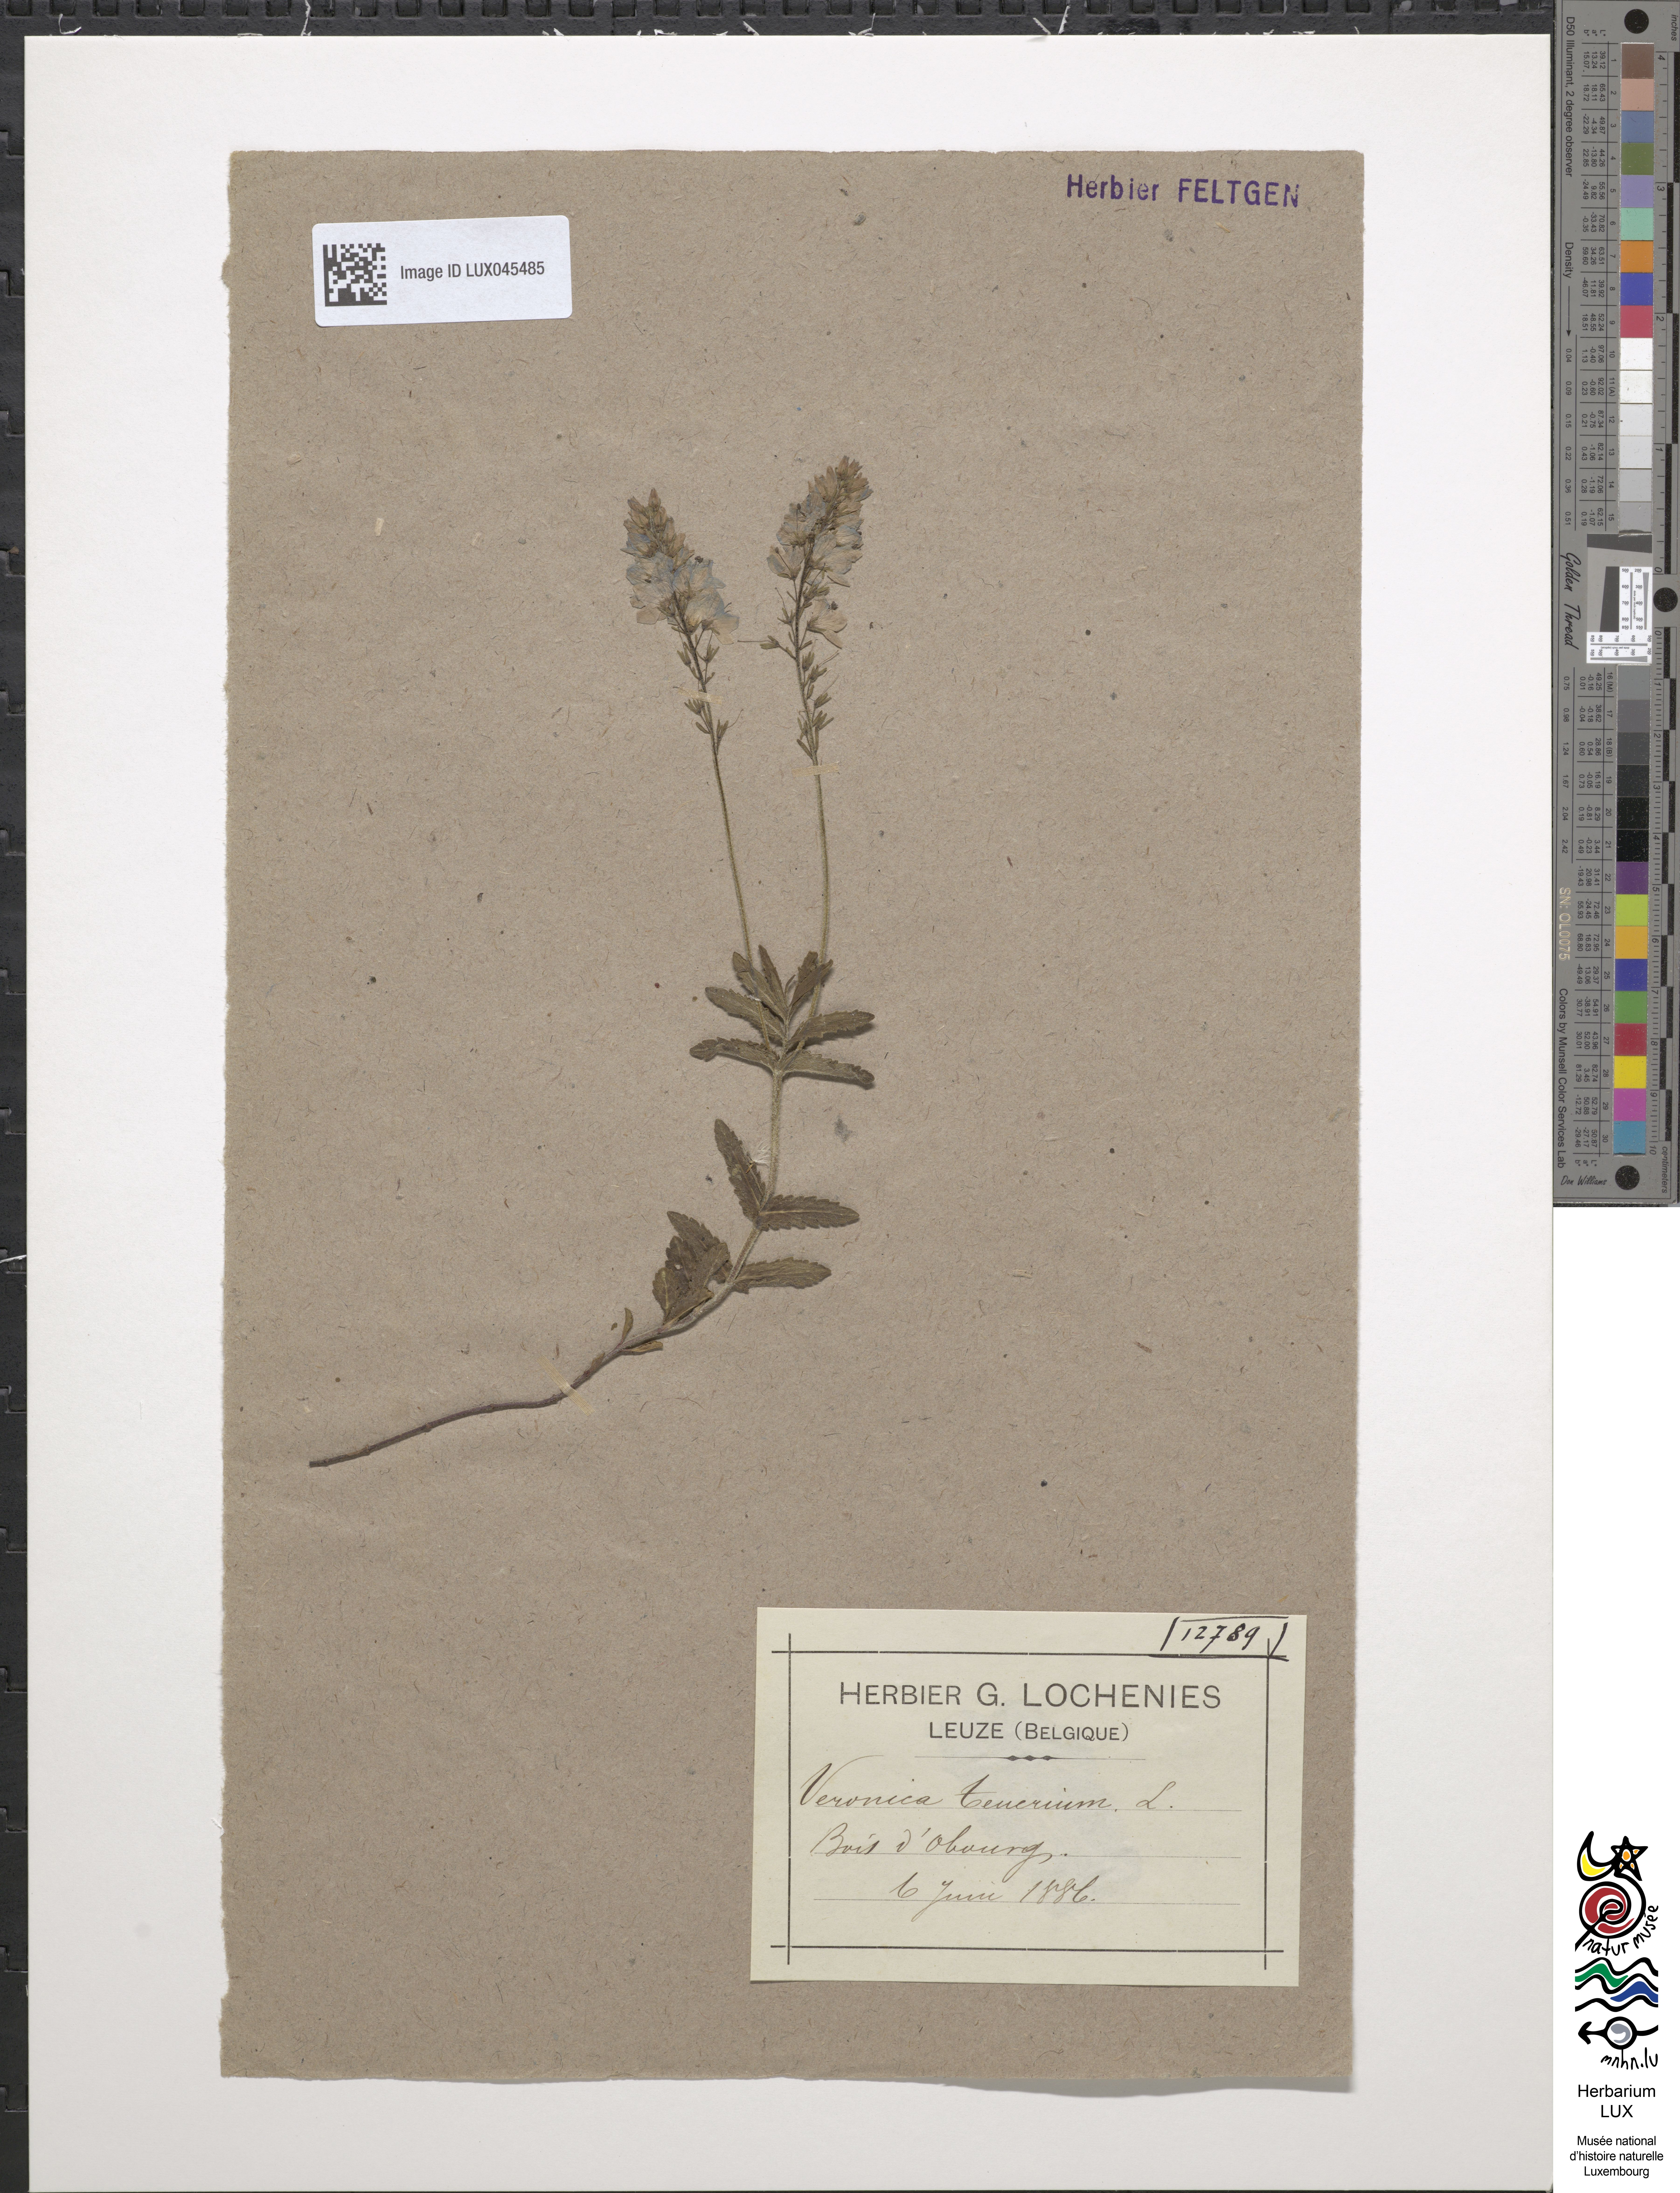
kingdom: Plantae
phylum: Tracheophyta
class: Magnoliopsida
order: Lamiales
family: Plantaginaceae
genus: Veronica
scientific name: Veronica teucrium
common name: Large speedwell
